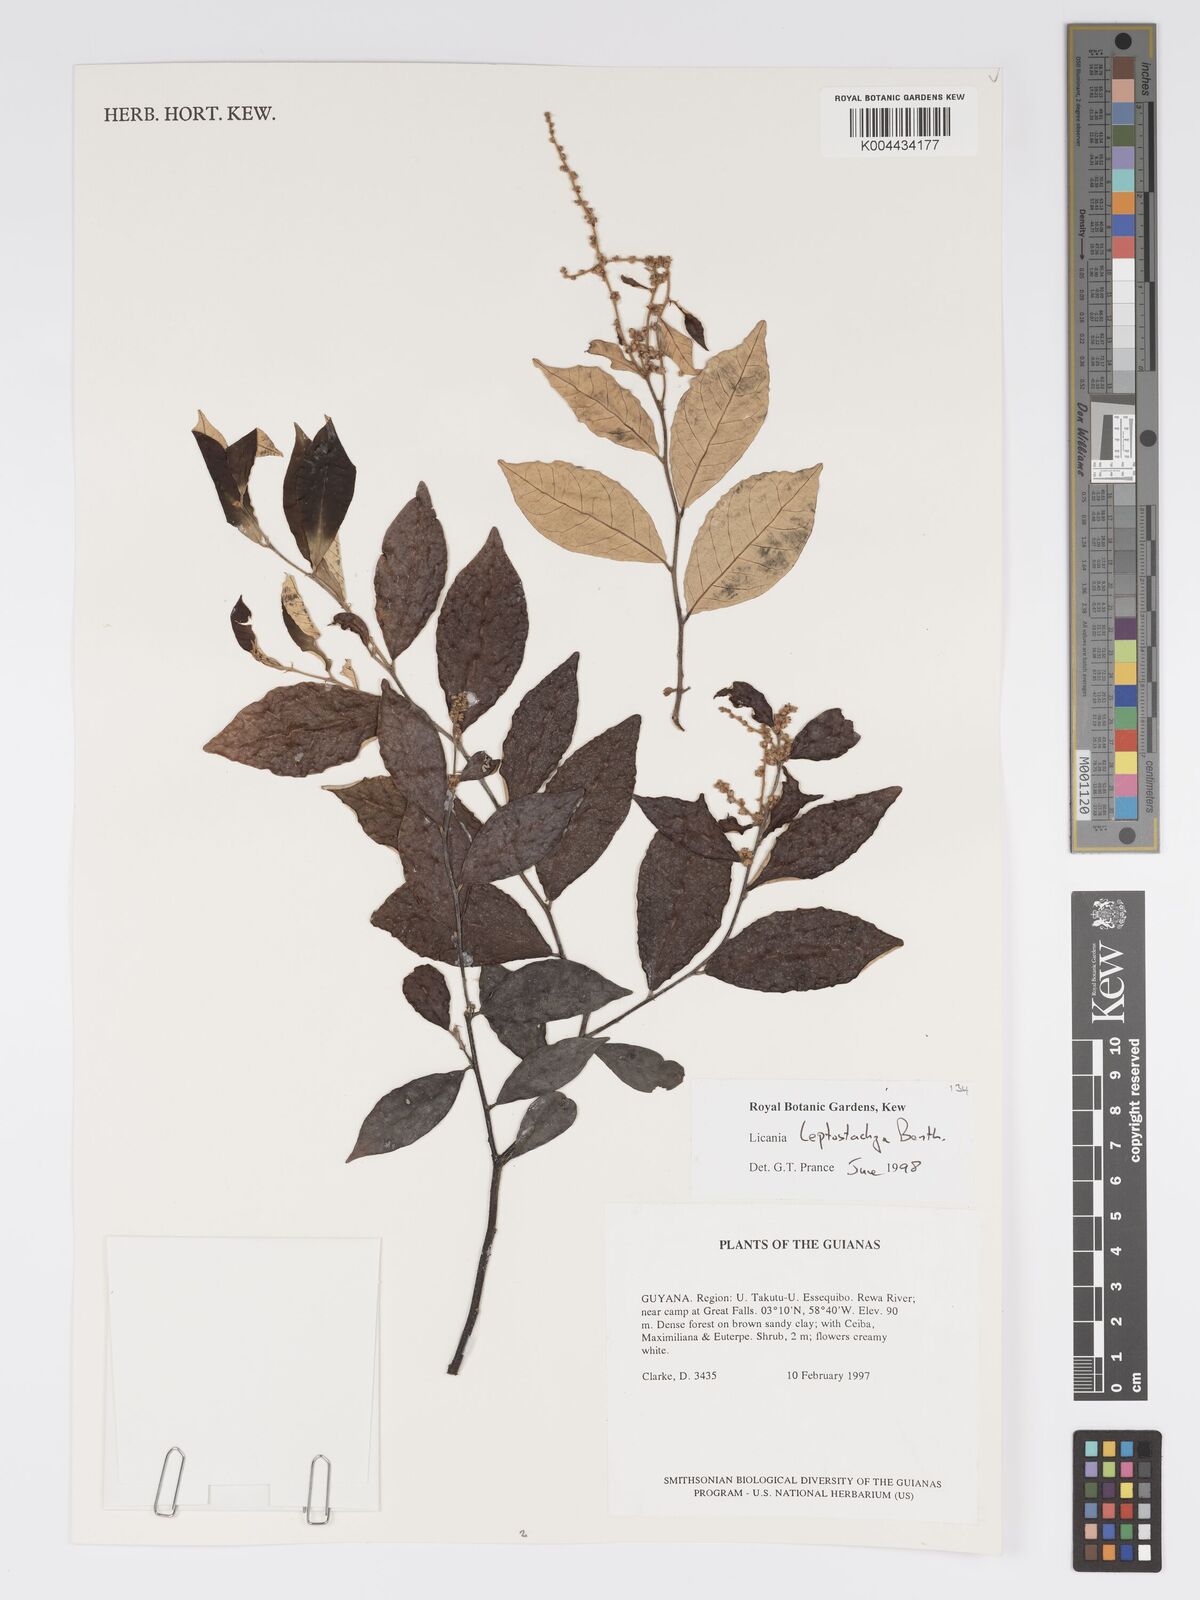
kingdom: Plantae
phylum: Tracheophyta
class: Magnoliopsida
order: Malpighiales
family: Chrysobalanaceae
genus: Licania
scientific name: Licania leptostachya
